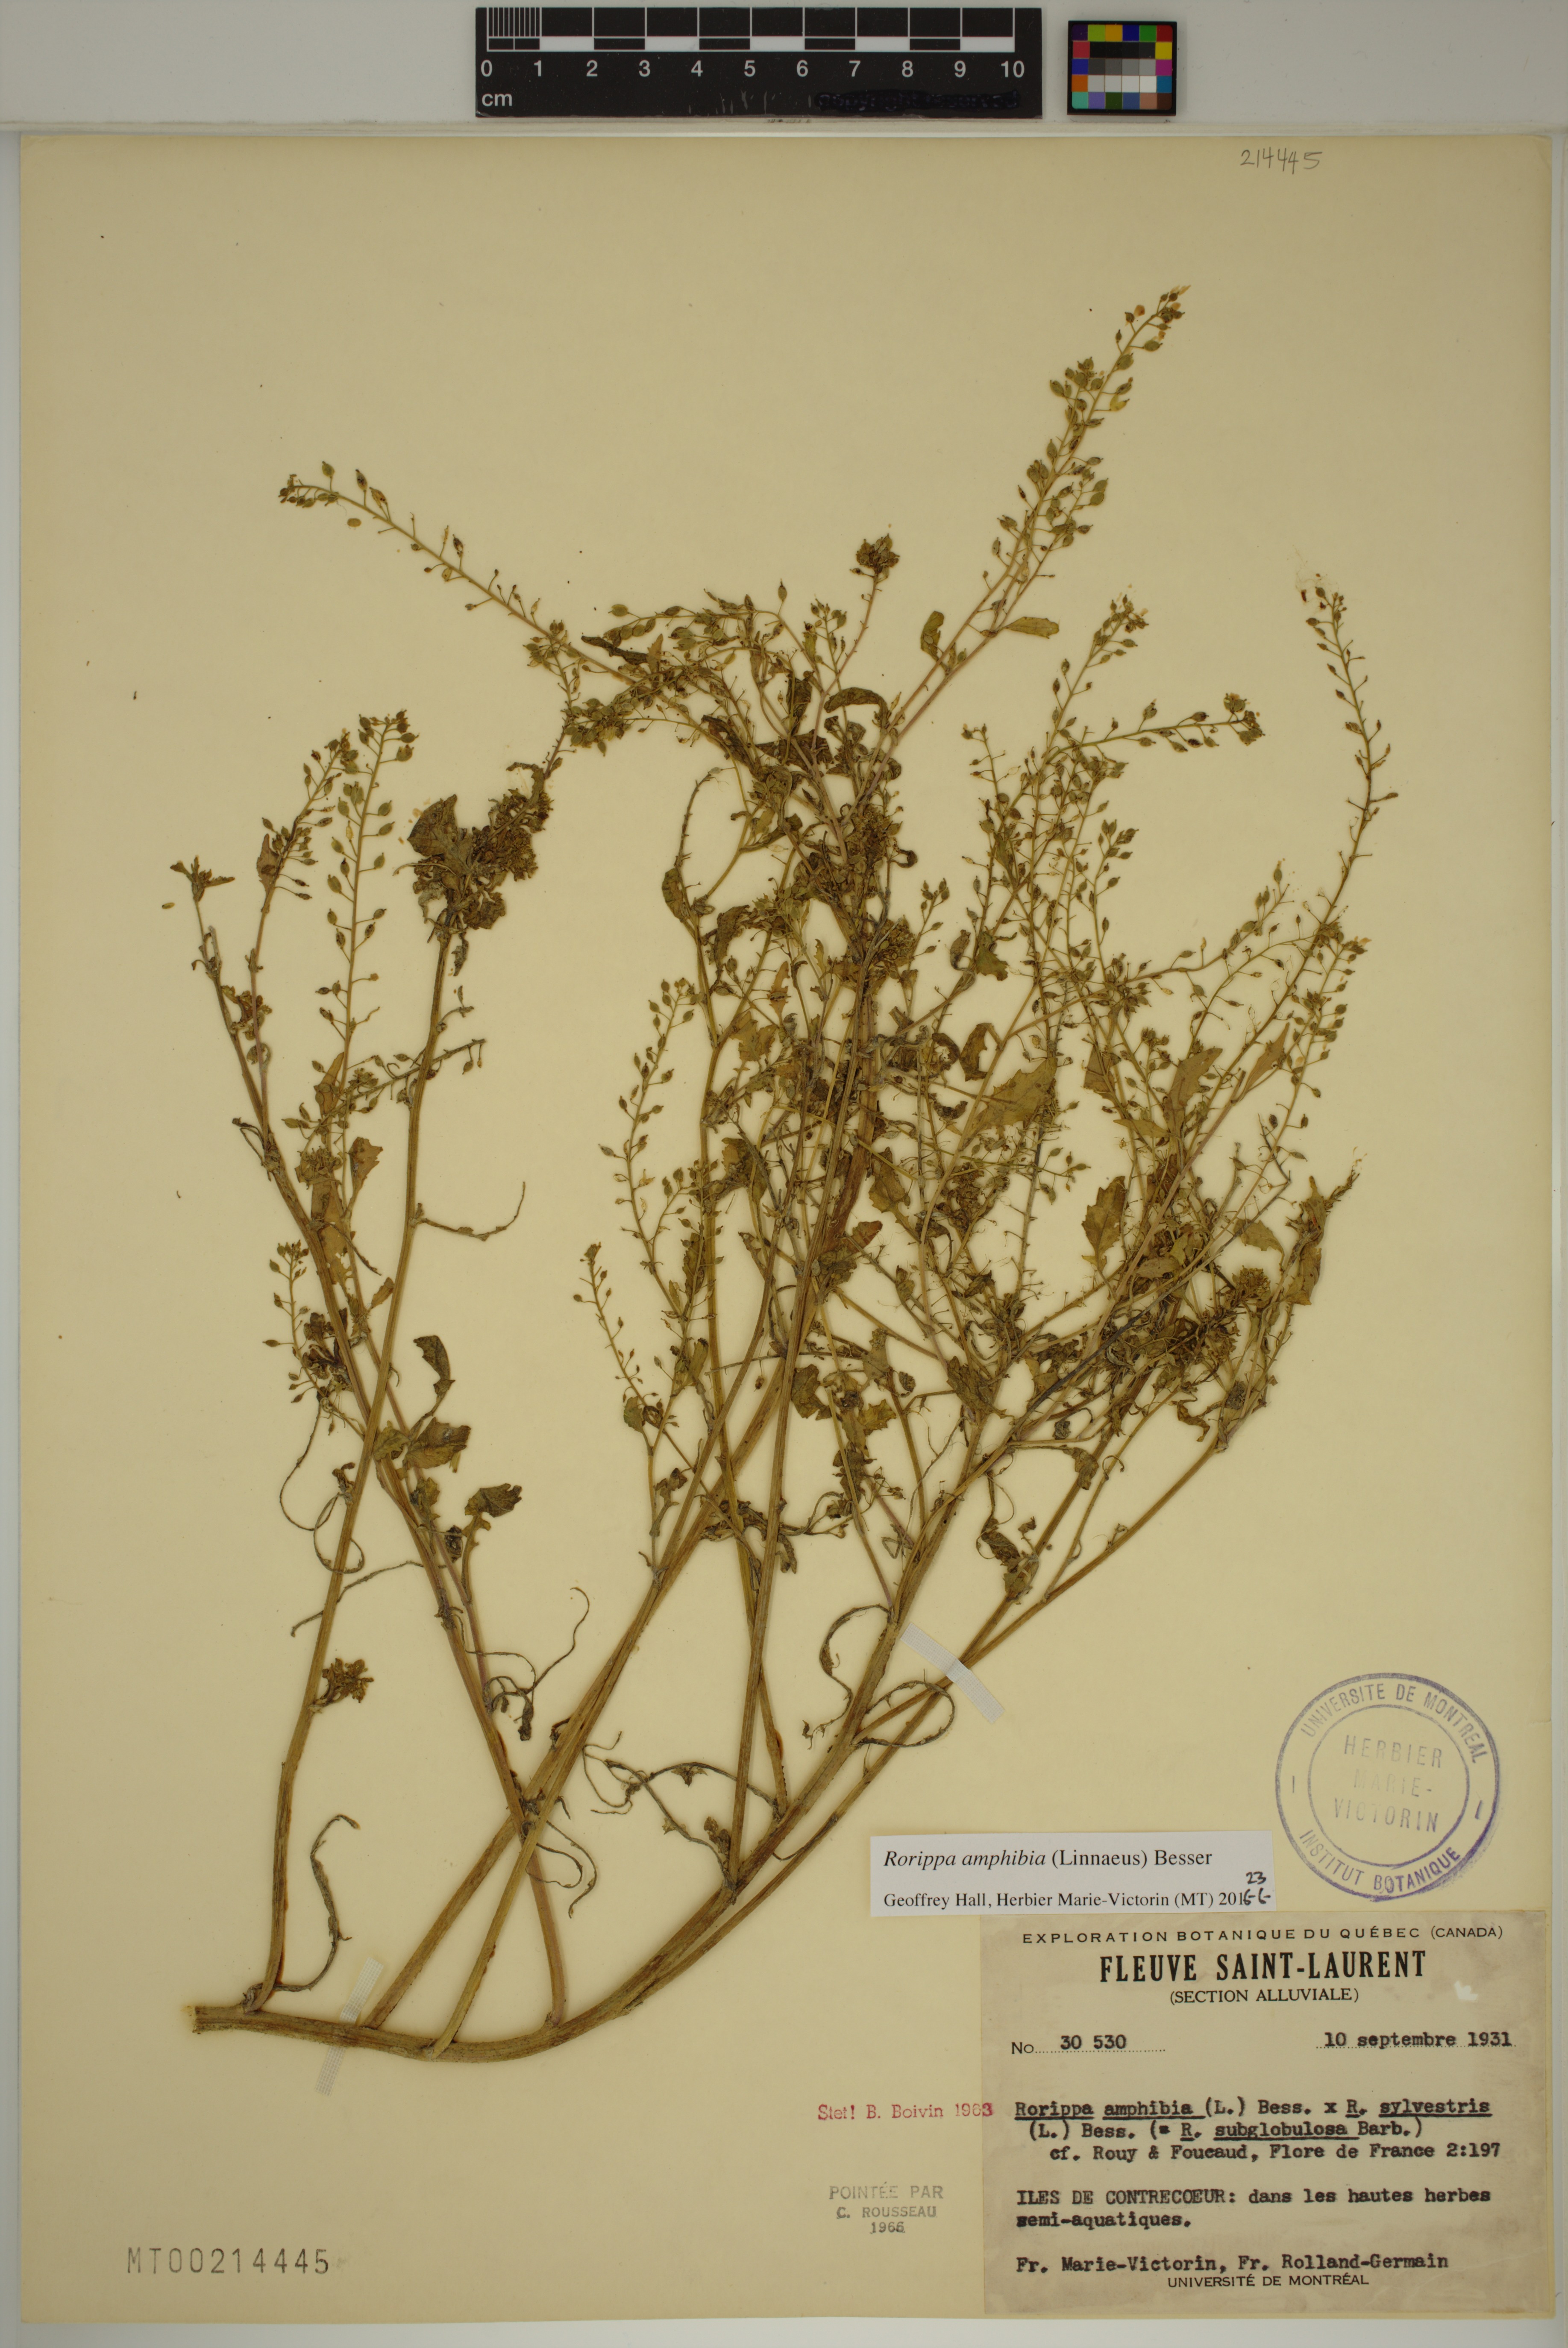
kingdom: Plantae
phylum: Tracheophyta
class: Magnoliopsida
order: Brassicales
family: Brassicaceae
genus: Rorippa
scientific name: Rorippa amphibia
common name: Great yellow-cress
